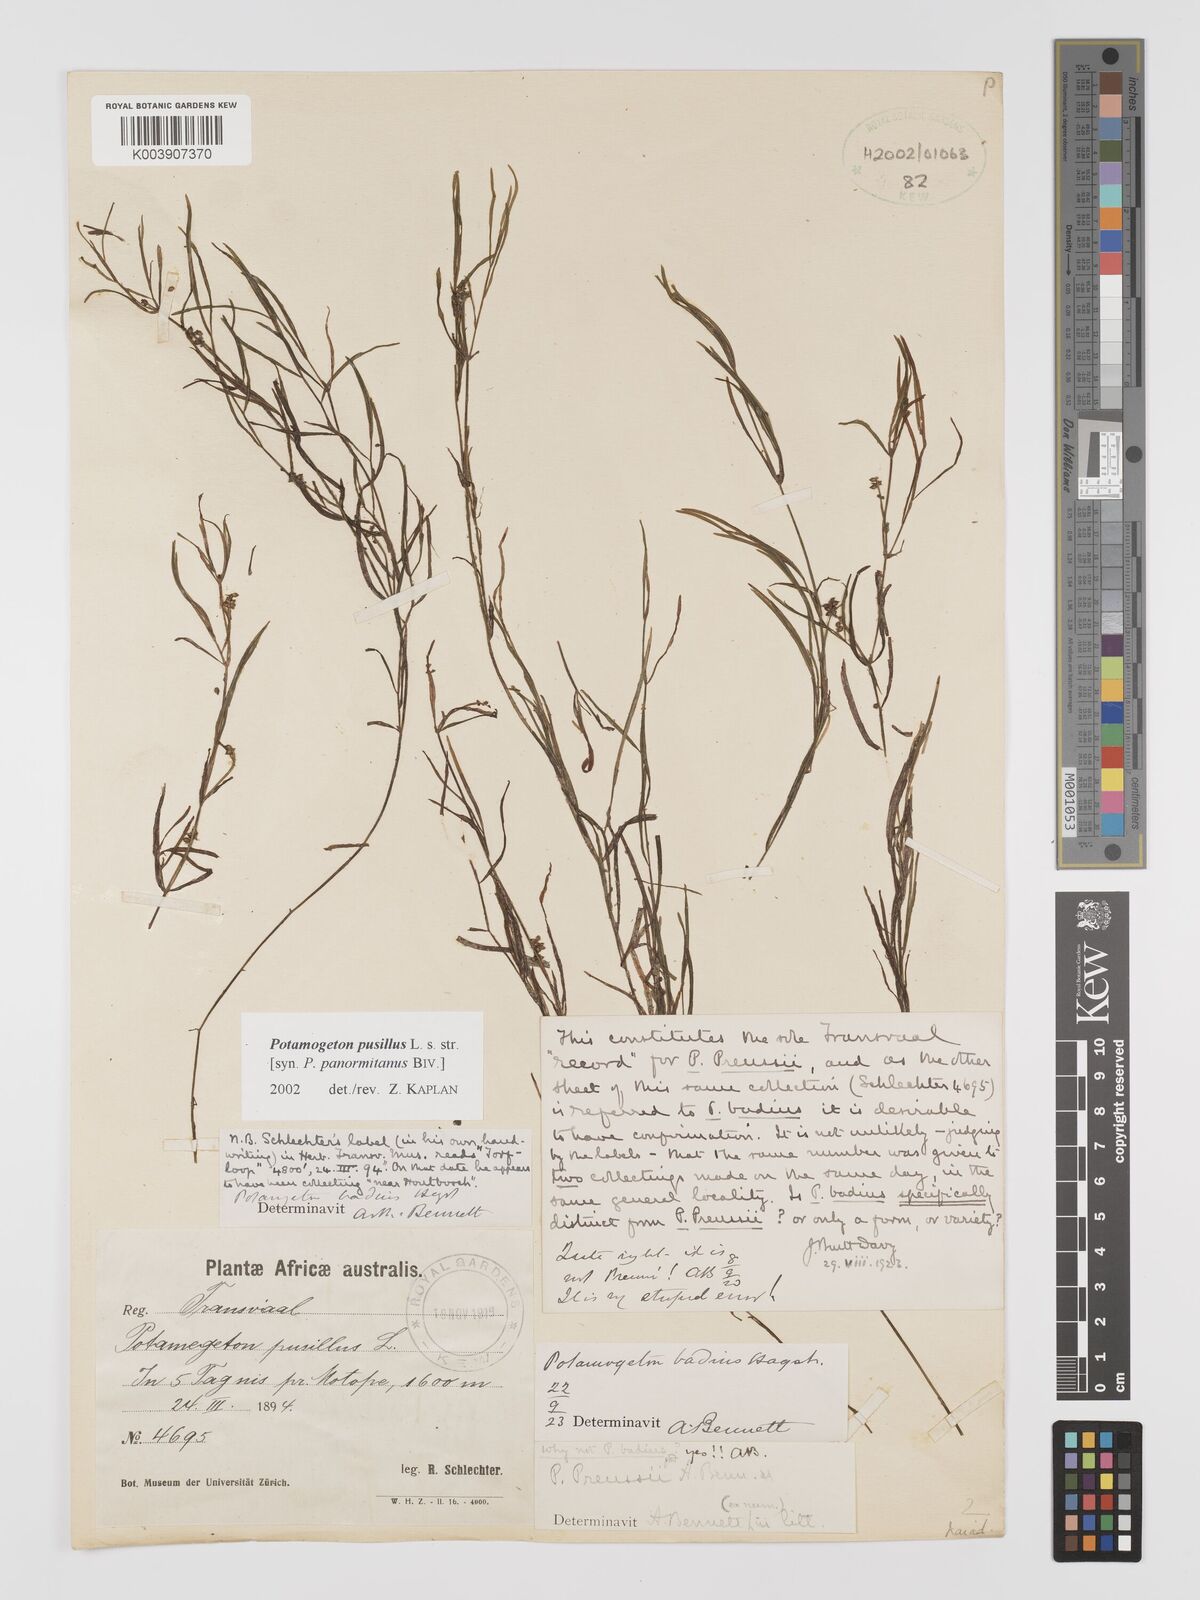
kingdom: Plantae
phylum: Tracheophyta
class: Liliopsida
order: Alismatales
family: Potamogetonaceae
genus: Potamogeton
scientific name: Potamogeton pusillus
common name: Lesser pondweed
